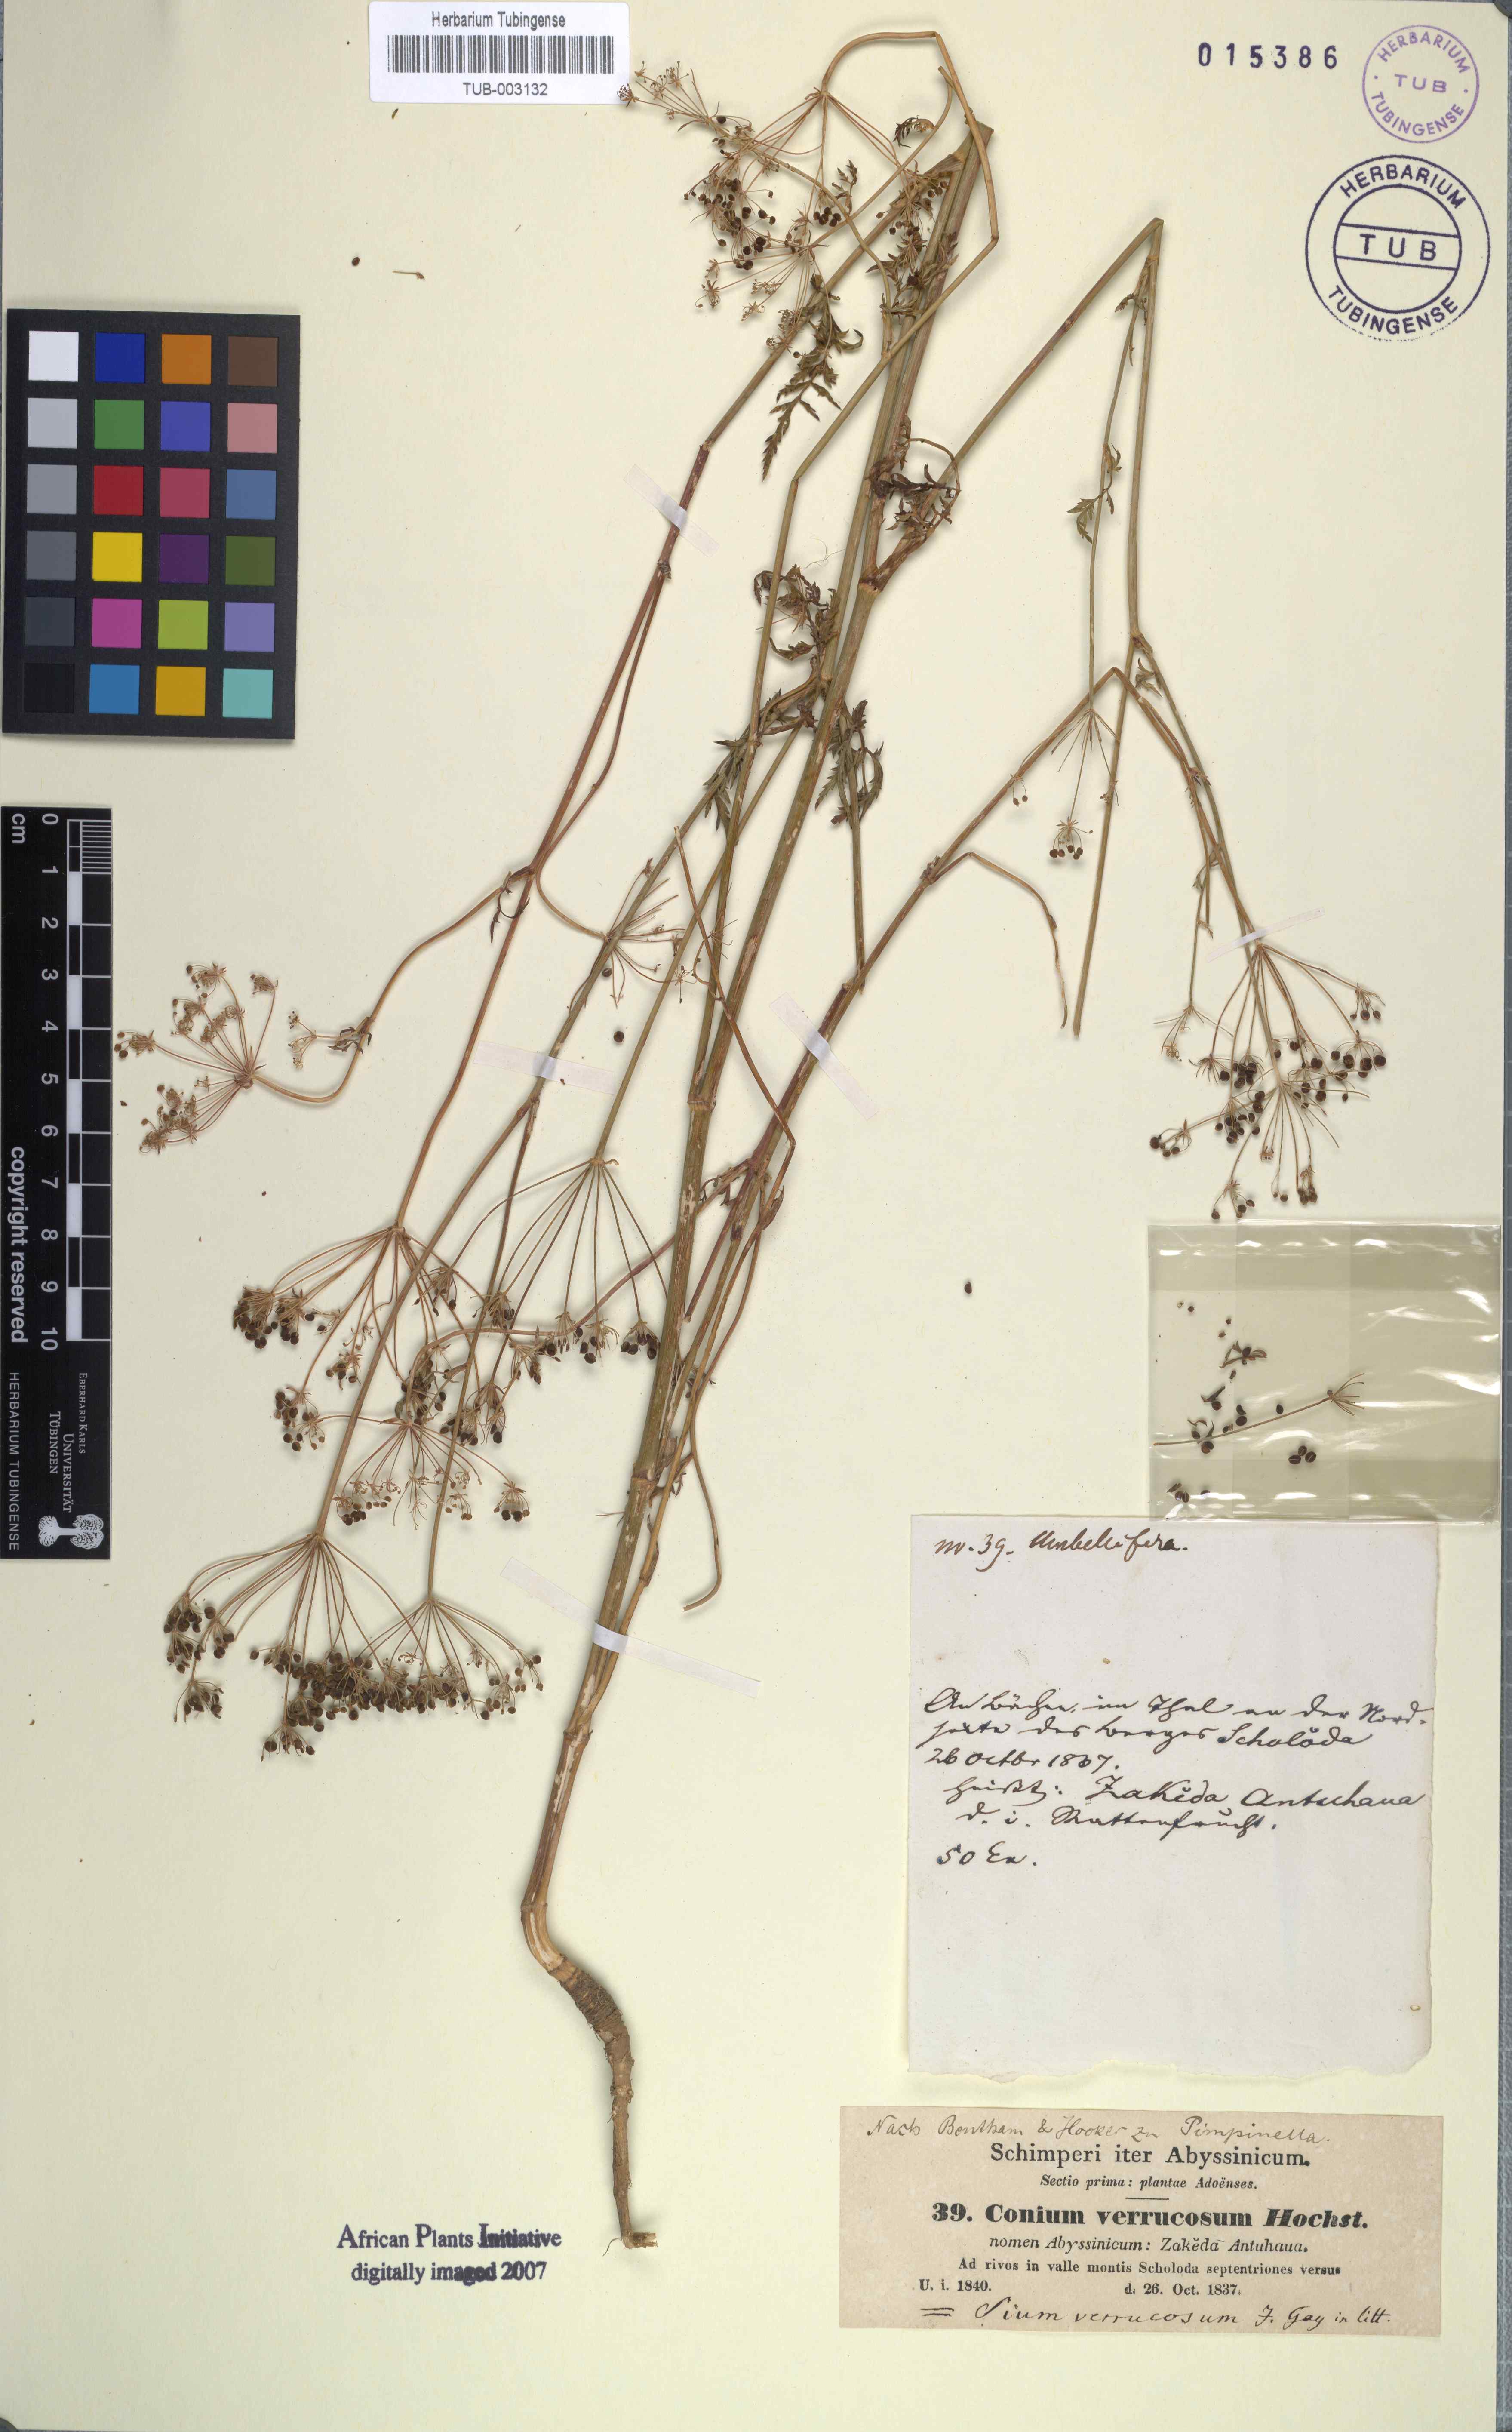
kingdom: Plantae
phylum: Tracheophyta
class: Magnoliopsida
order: Apiales
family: Apiaceae
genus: Oreoschimperella
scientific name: Oreoschimperella verrucosa
